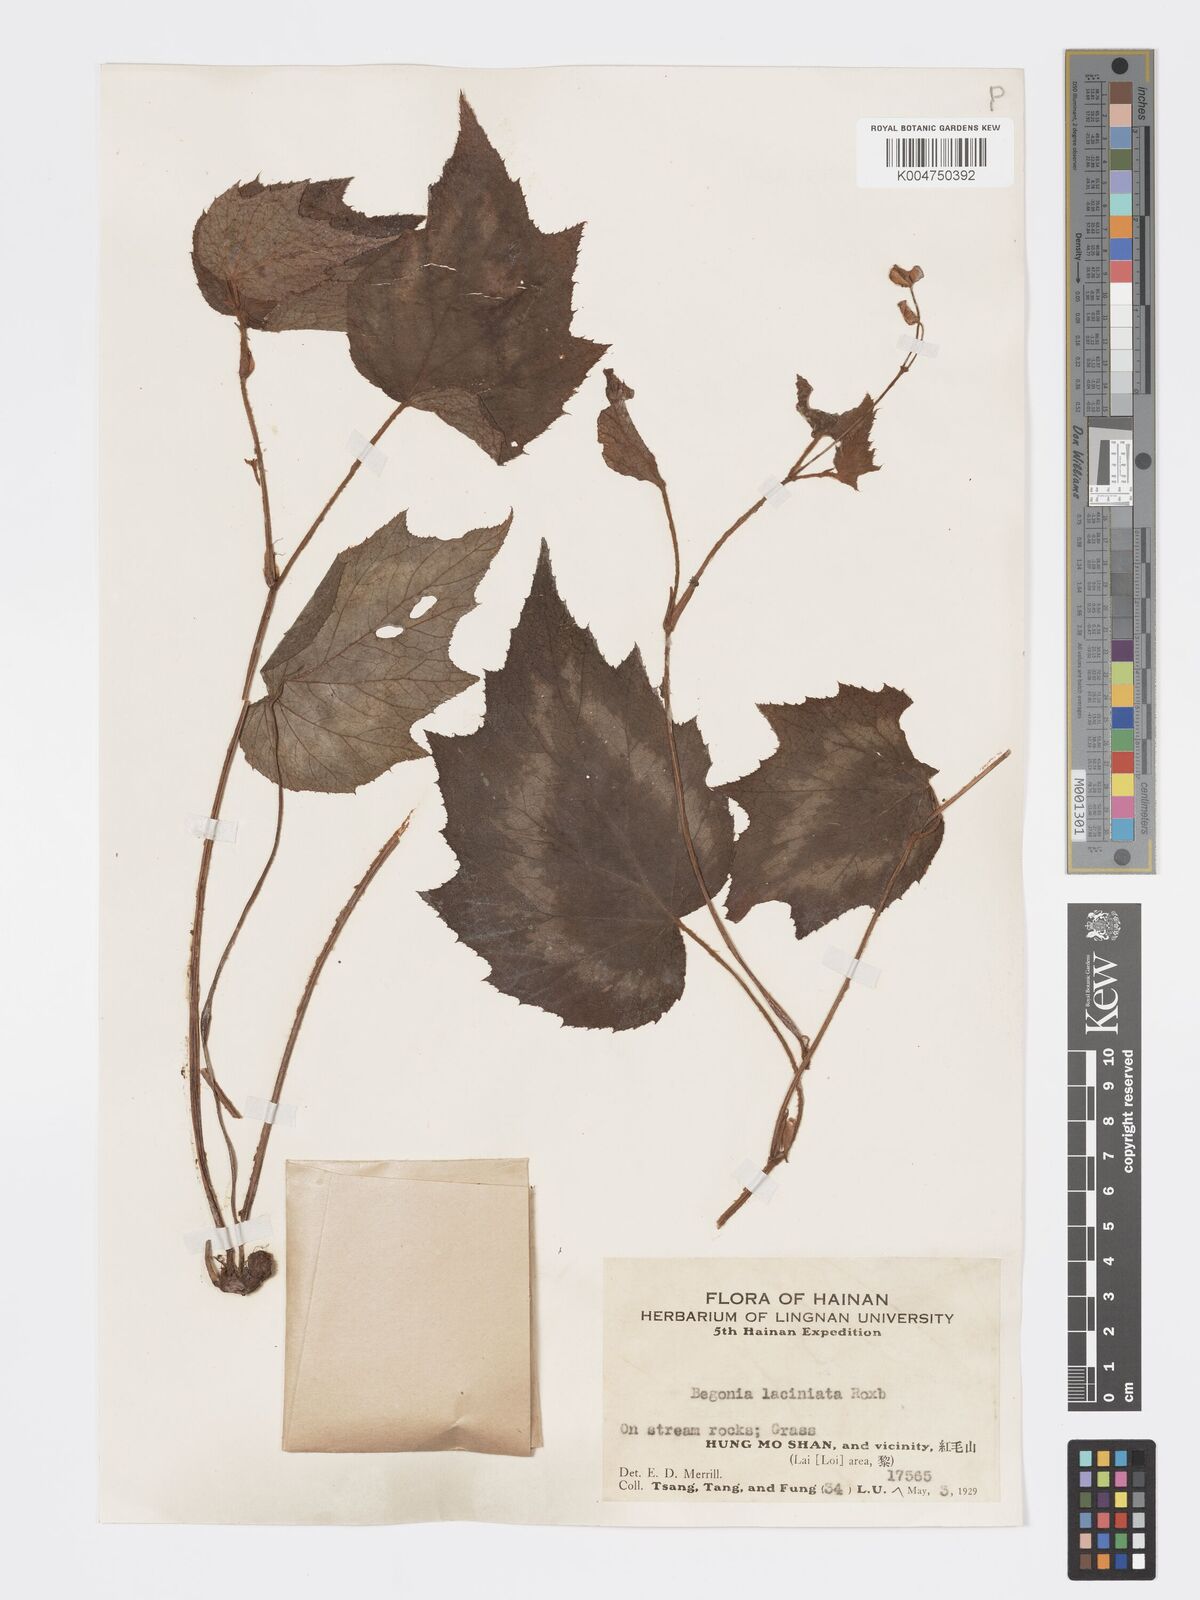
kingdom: Plantae
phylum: Tracheophyta
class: Magnoliopsida
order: Cucurbitales
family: Begoniaceae
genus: Begonia
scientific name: Begonia palmata
